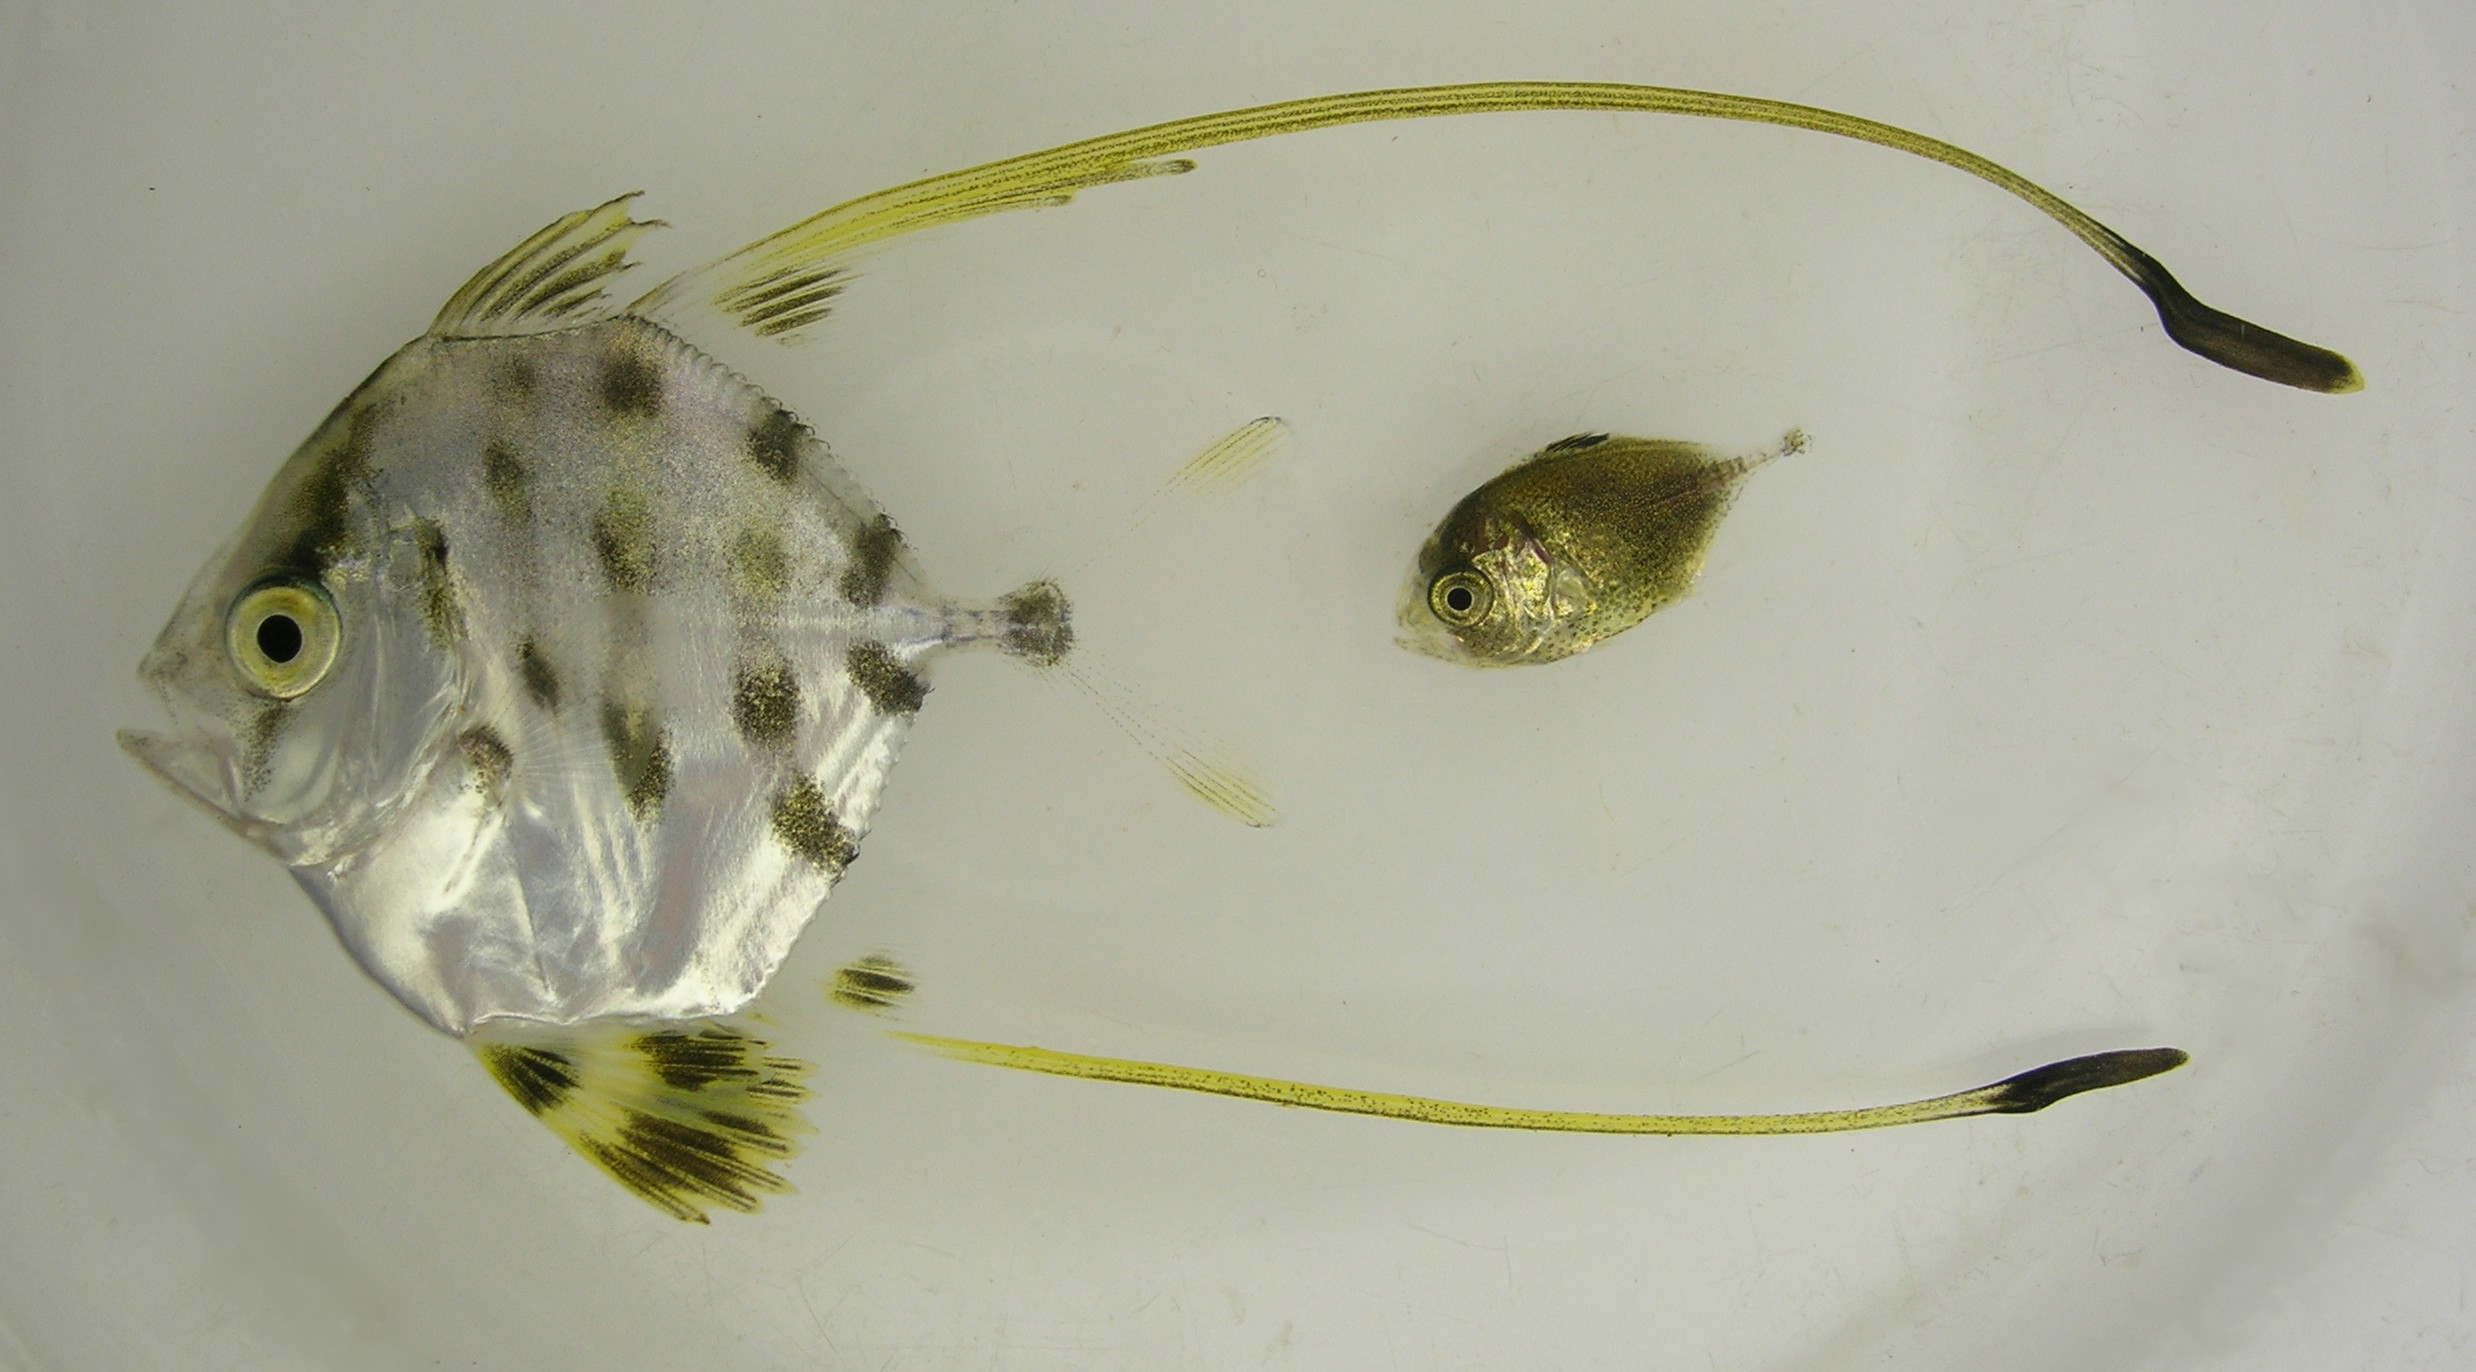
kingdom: Animalia
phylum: Chordata
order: Perciformes
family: Carangidae
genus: Alectis
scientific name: Alectis ciliaris
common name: African pompano
